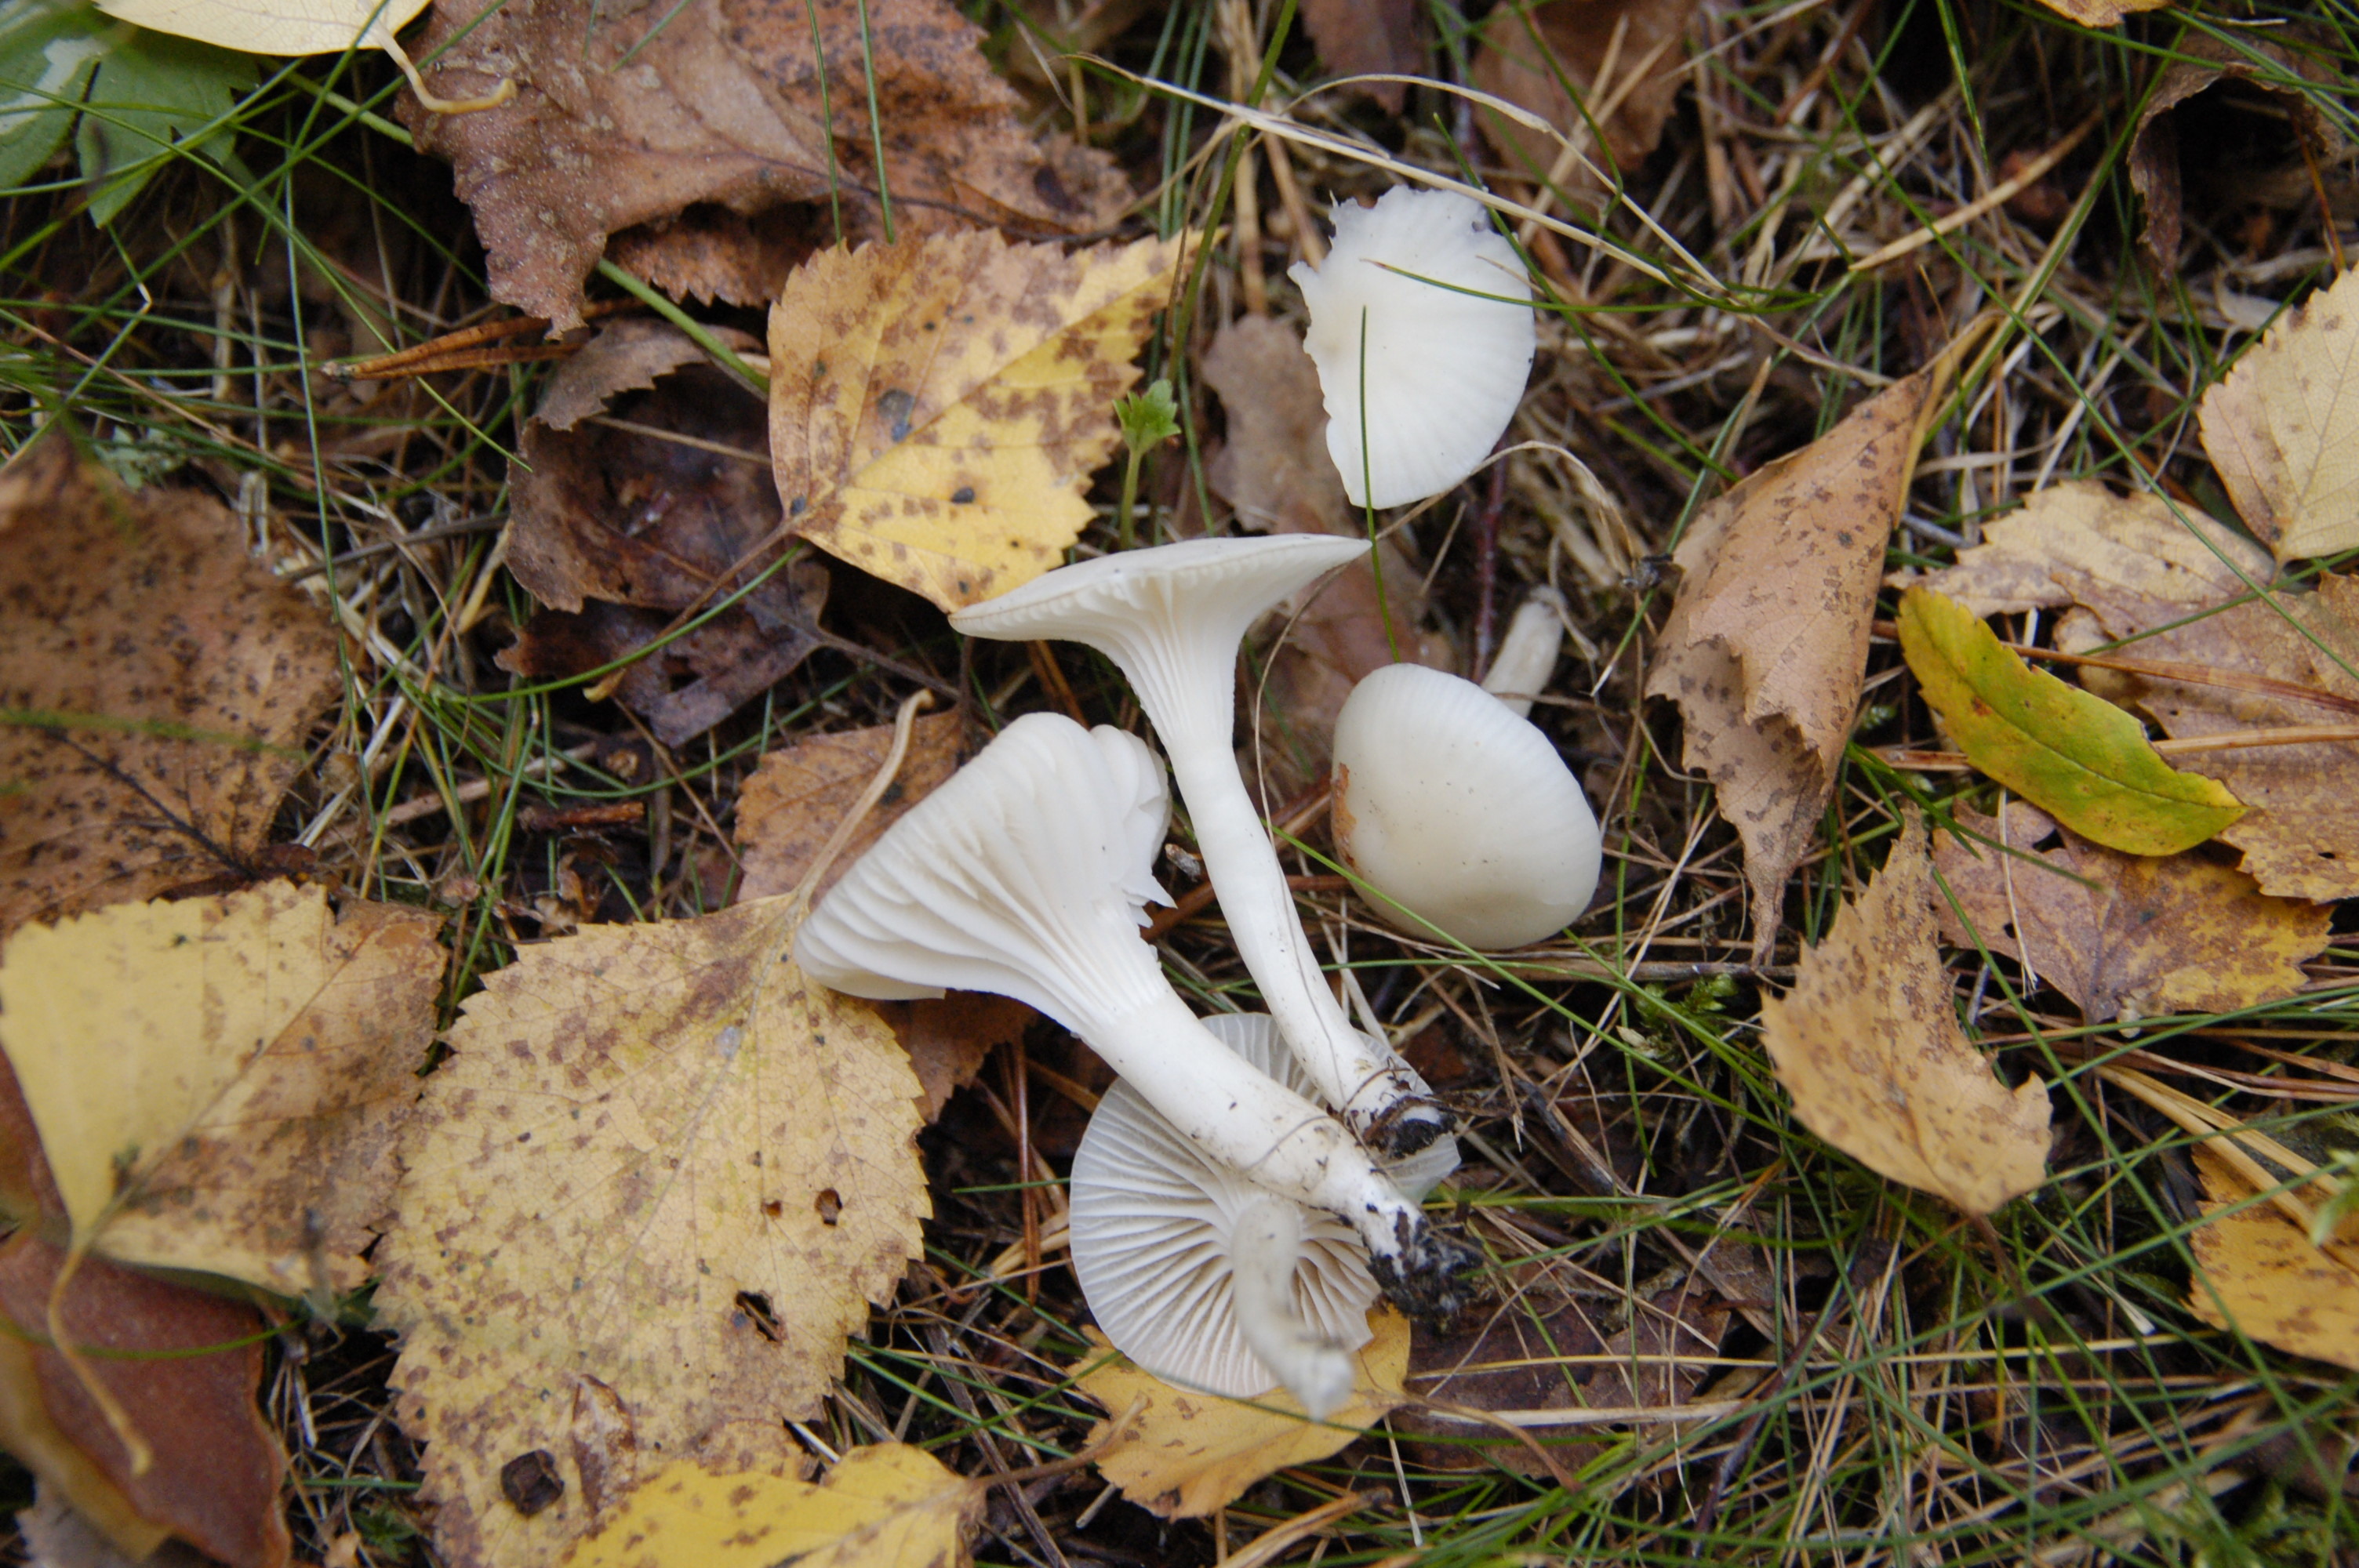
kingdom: Fungi
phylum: Basidiomycota
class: Agaricomycetes
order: Agaricales
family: Hygrophoraceae
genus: Cuphophyllus
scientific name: Cuphophyllus virgineus
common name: Snowy waxcap
